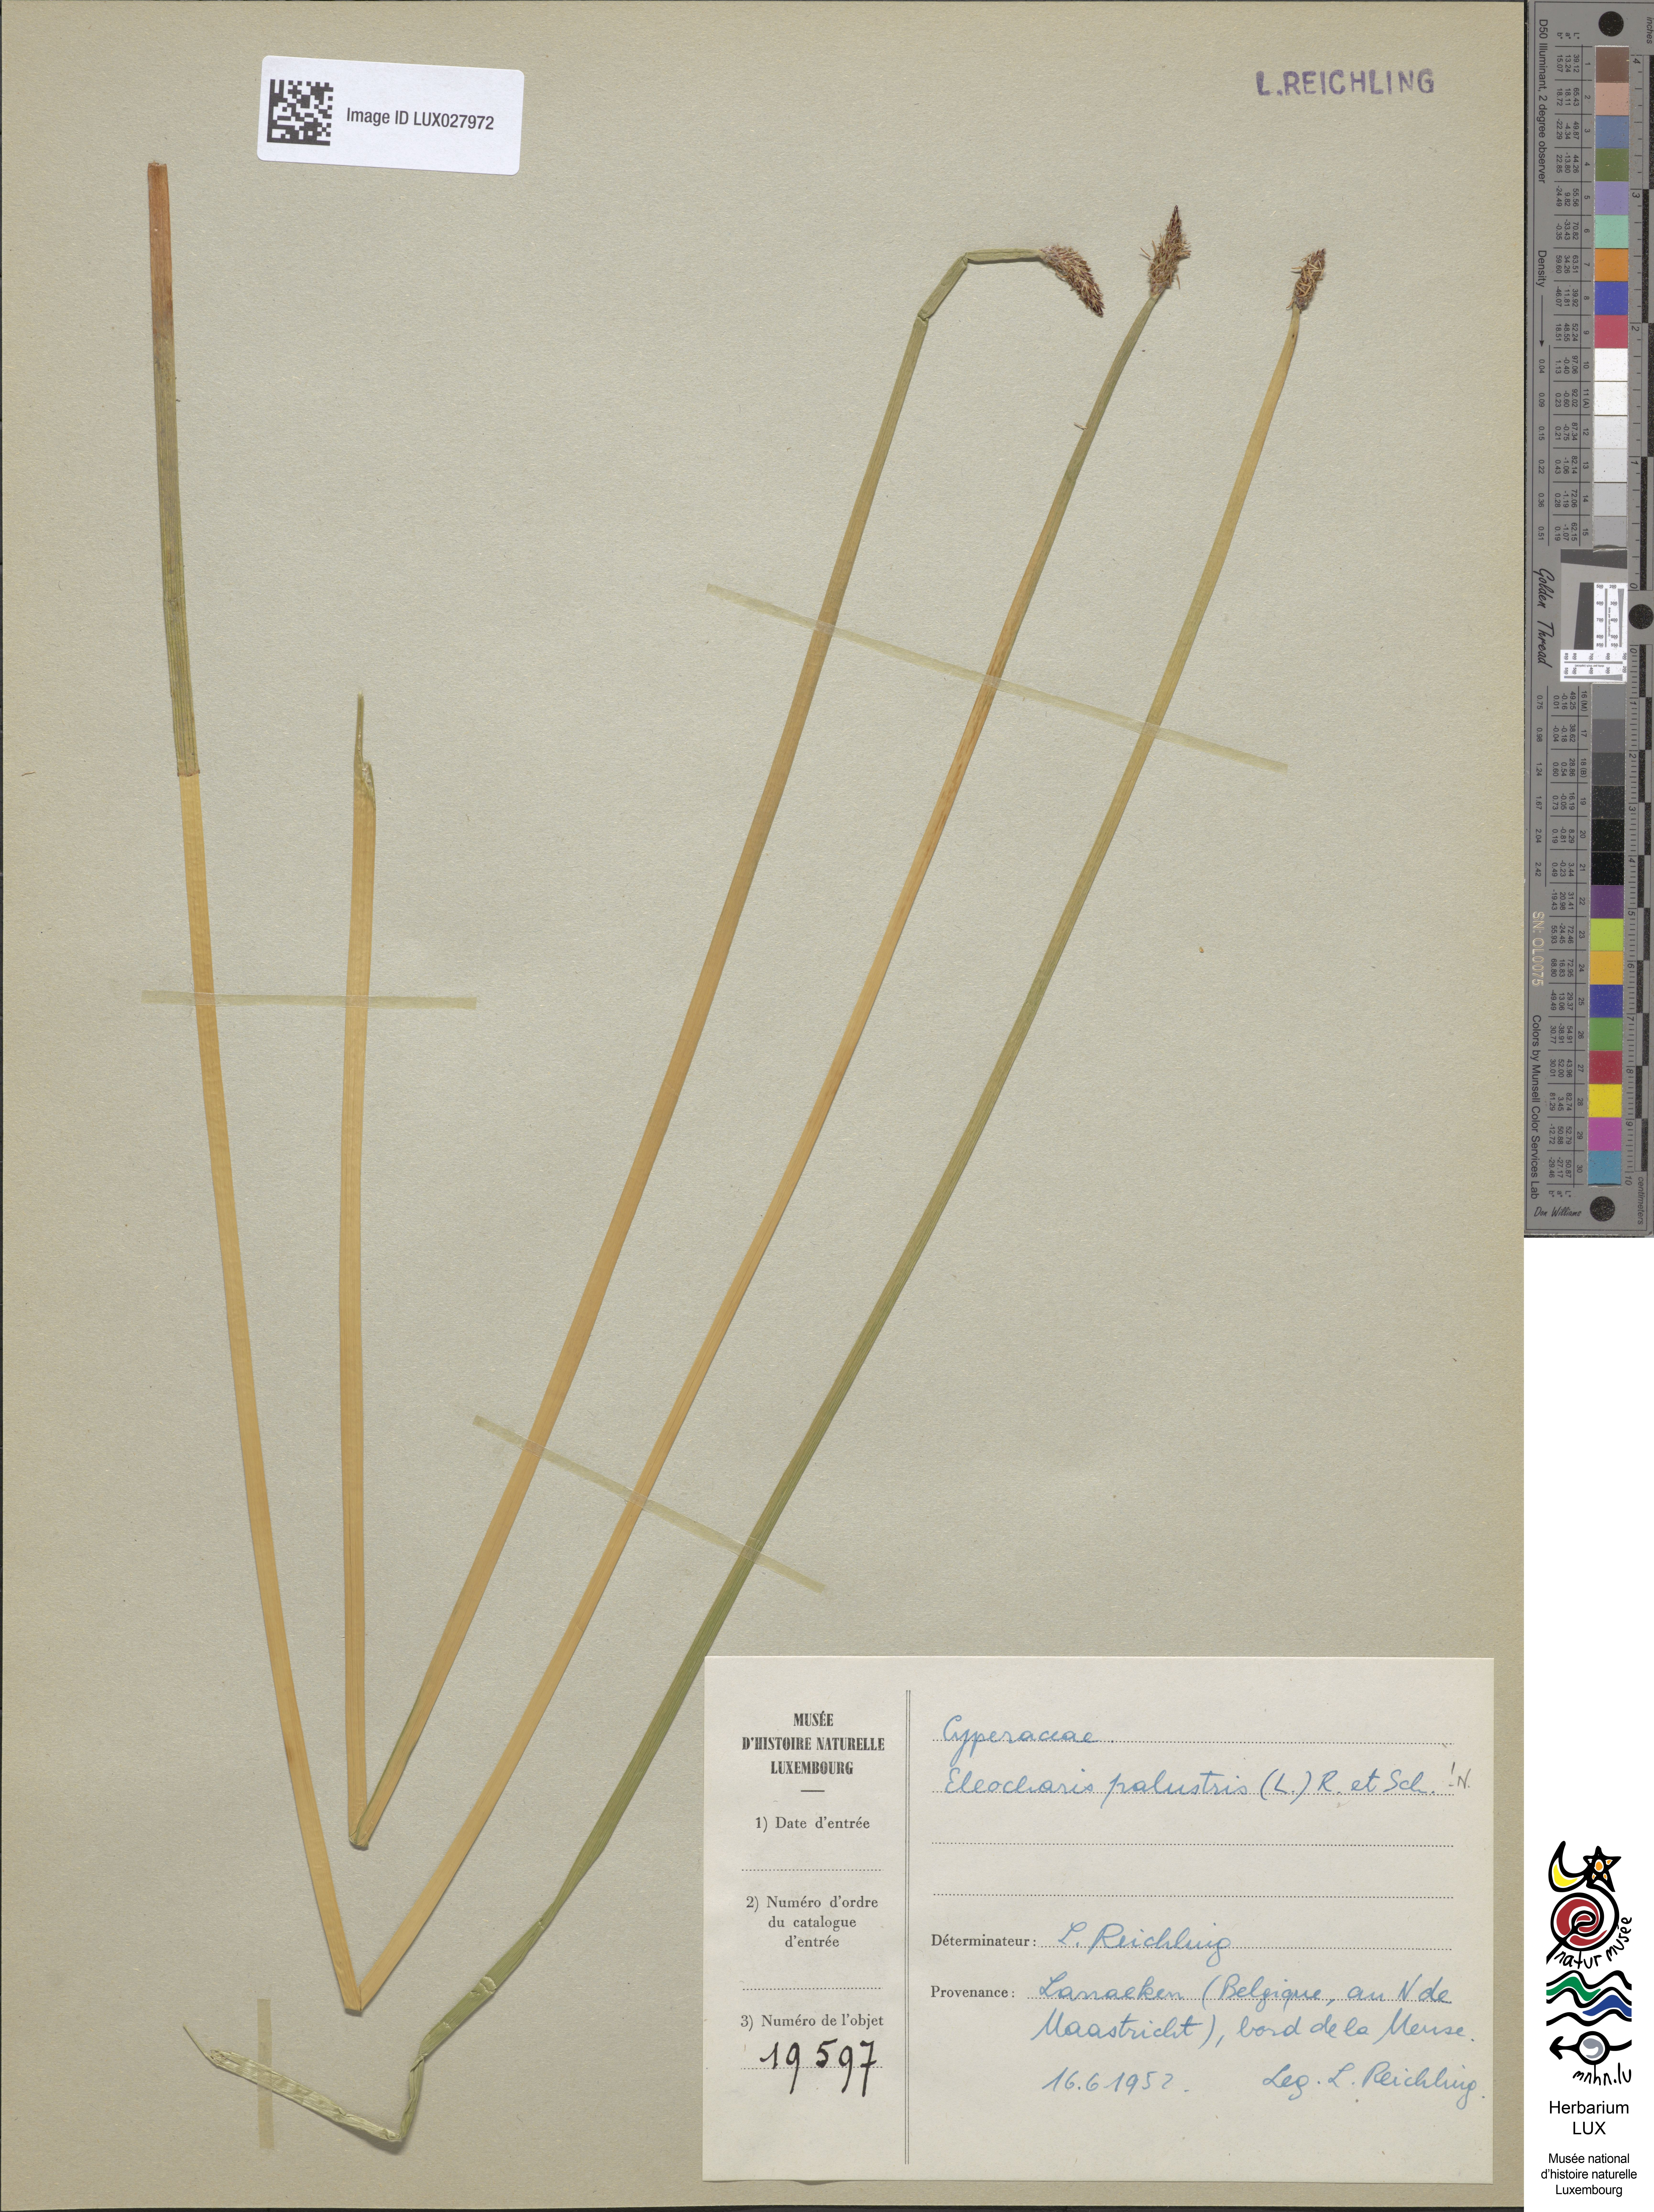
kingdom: Plantae
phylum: Tracheophyta
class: Liliopsida
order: Poales
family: Cyperaceae
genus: Eleocharis
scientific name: Eleocharis palustris
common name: Common spike-rush
